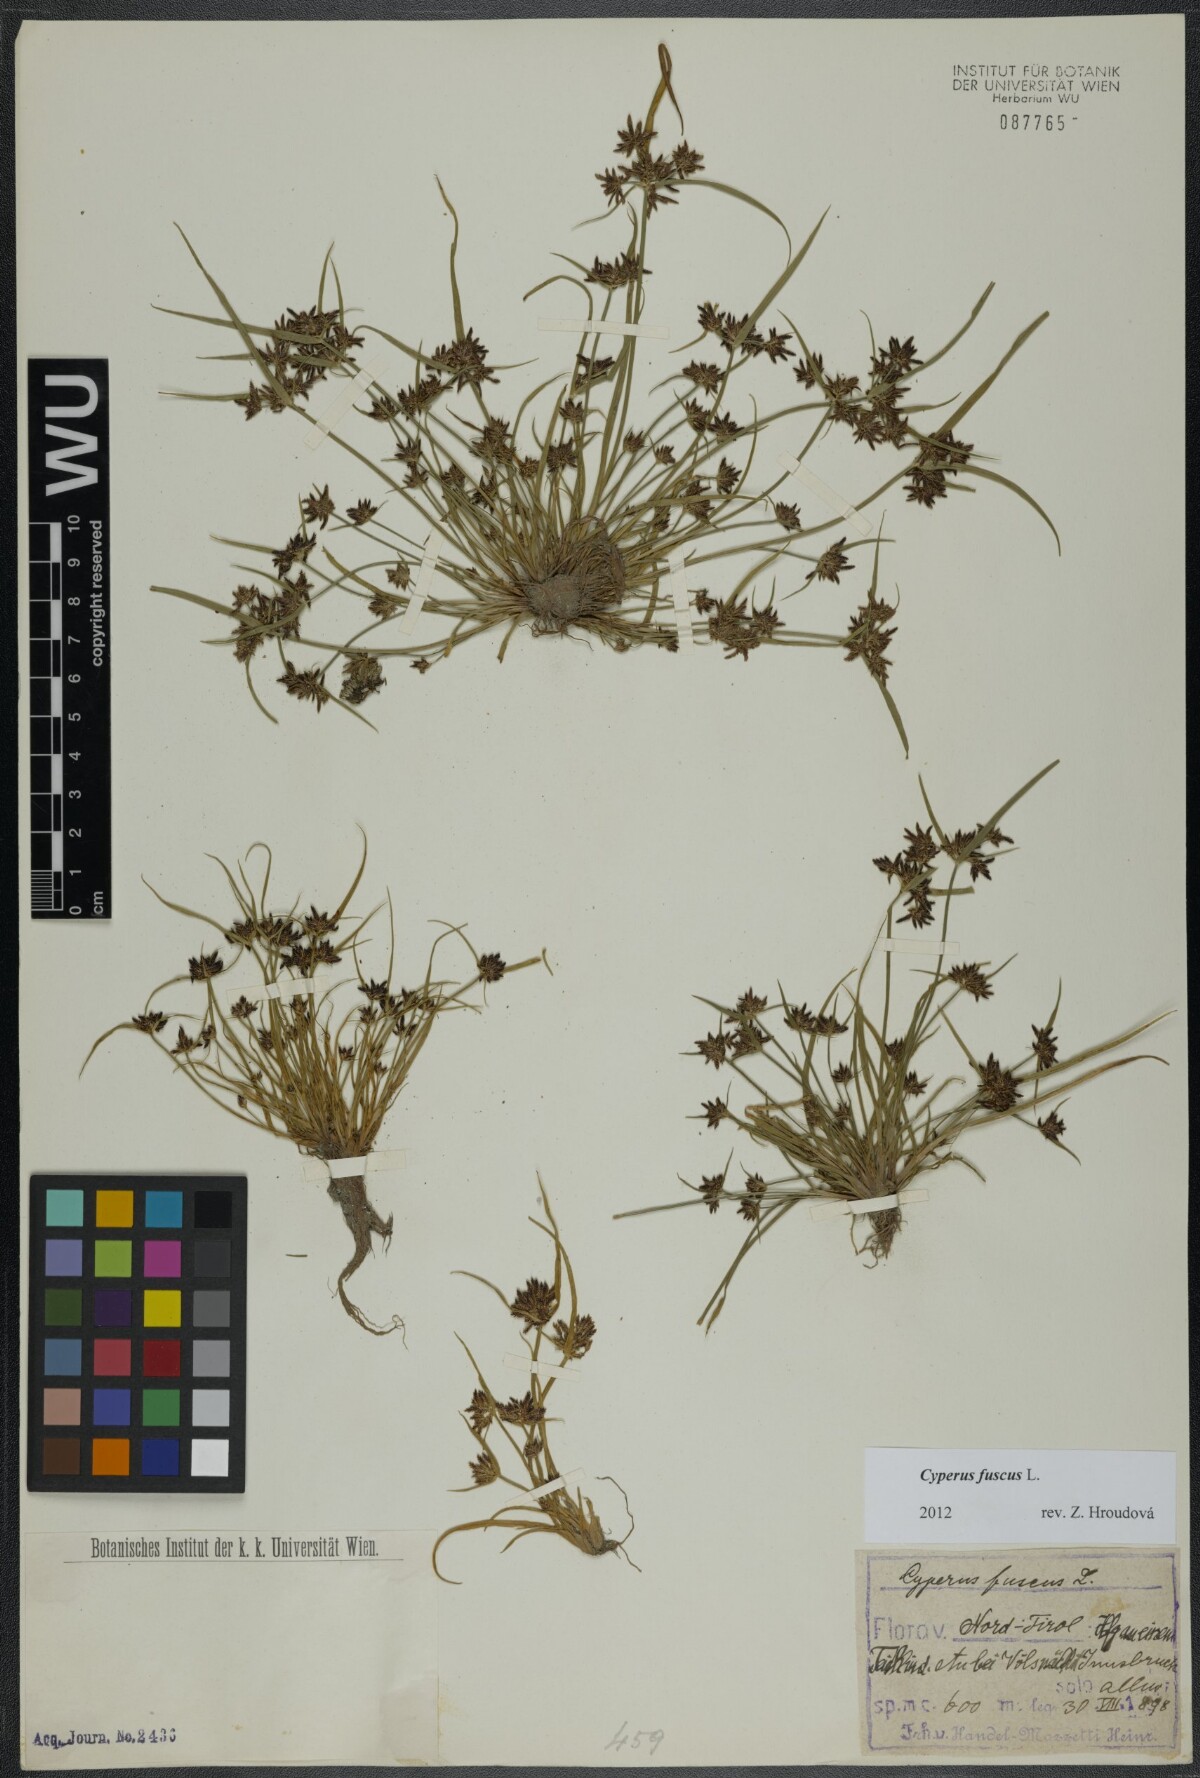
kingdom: Plantae
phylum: Tracheophyta
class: Liliopsida
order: Poales
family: Cyperaceae
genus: Cyperus
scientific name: Cyperus fuscus
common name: Brown galingale
